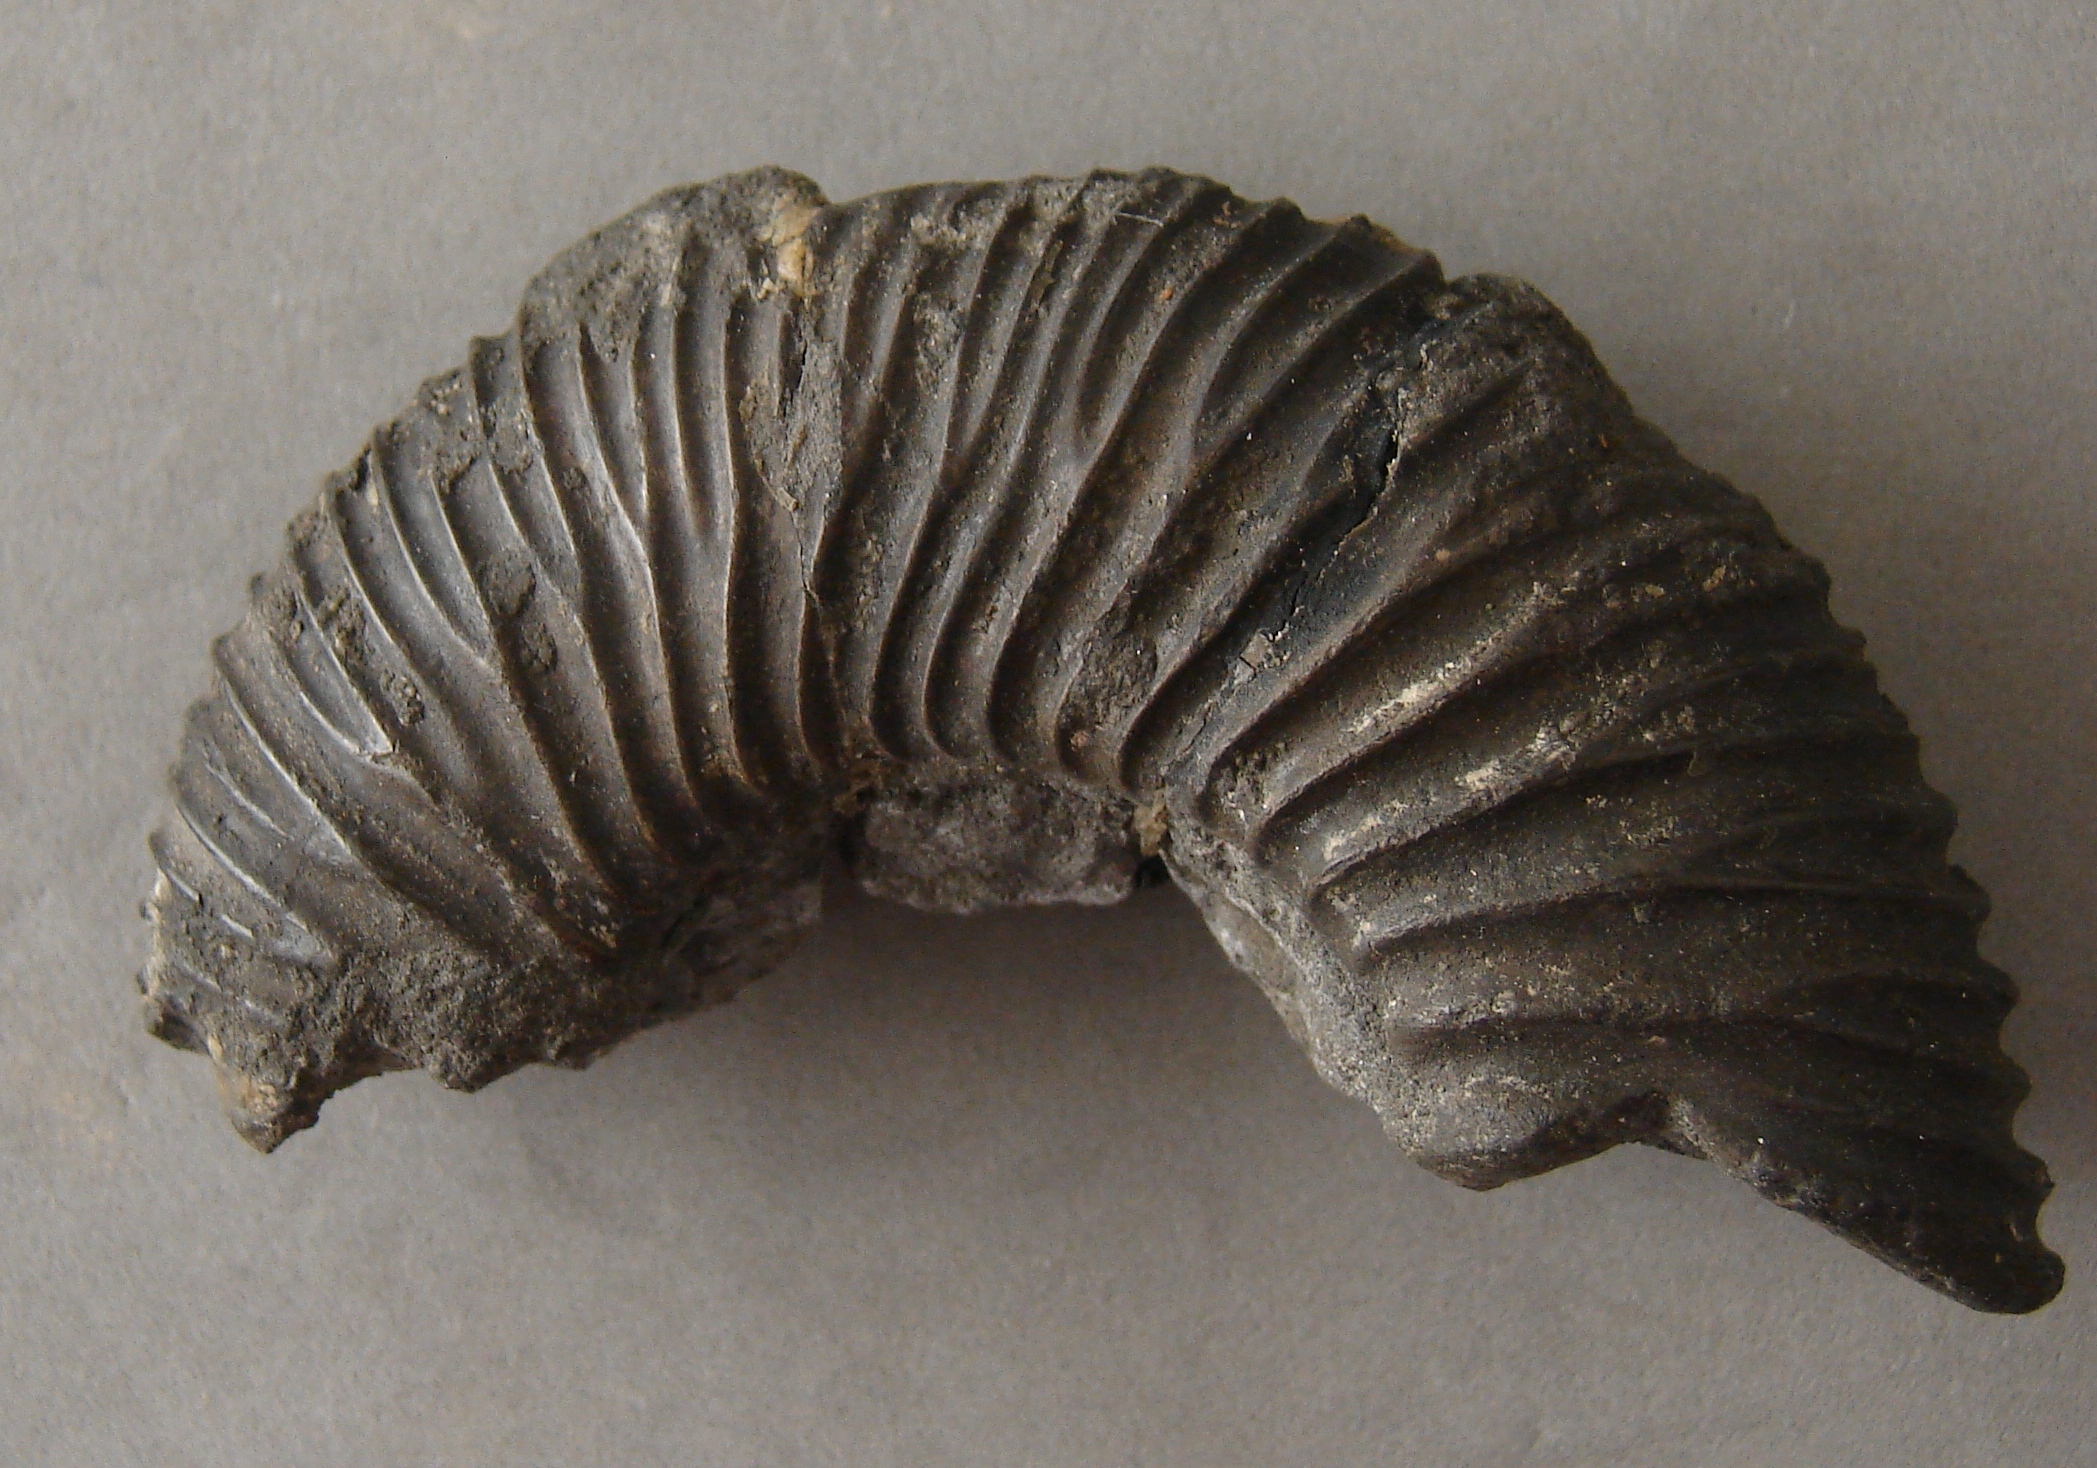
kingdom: Animalia
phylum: Mollusca
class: Cephalopoda
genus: Ammonites
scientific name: Ammonites
